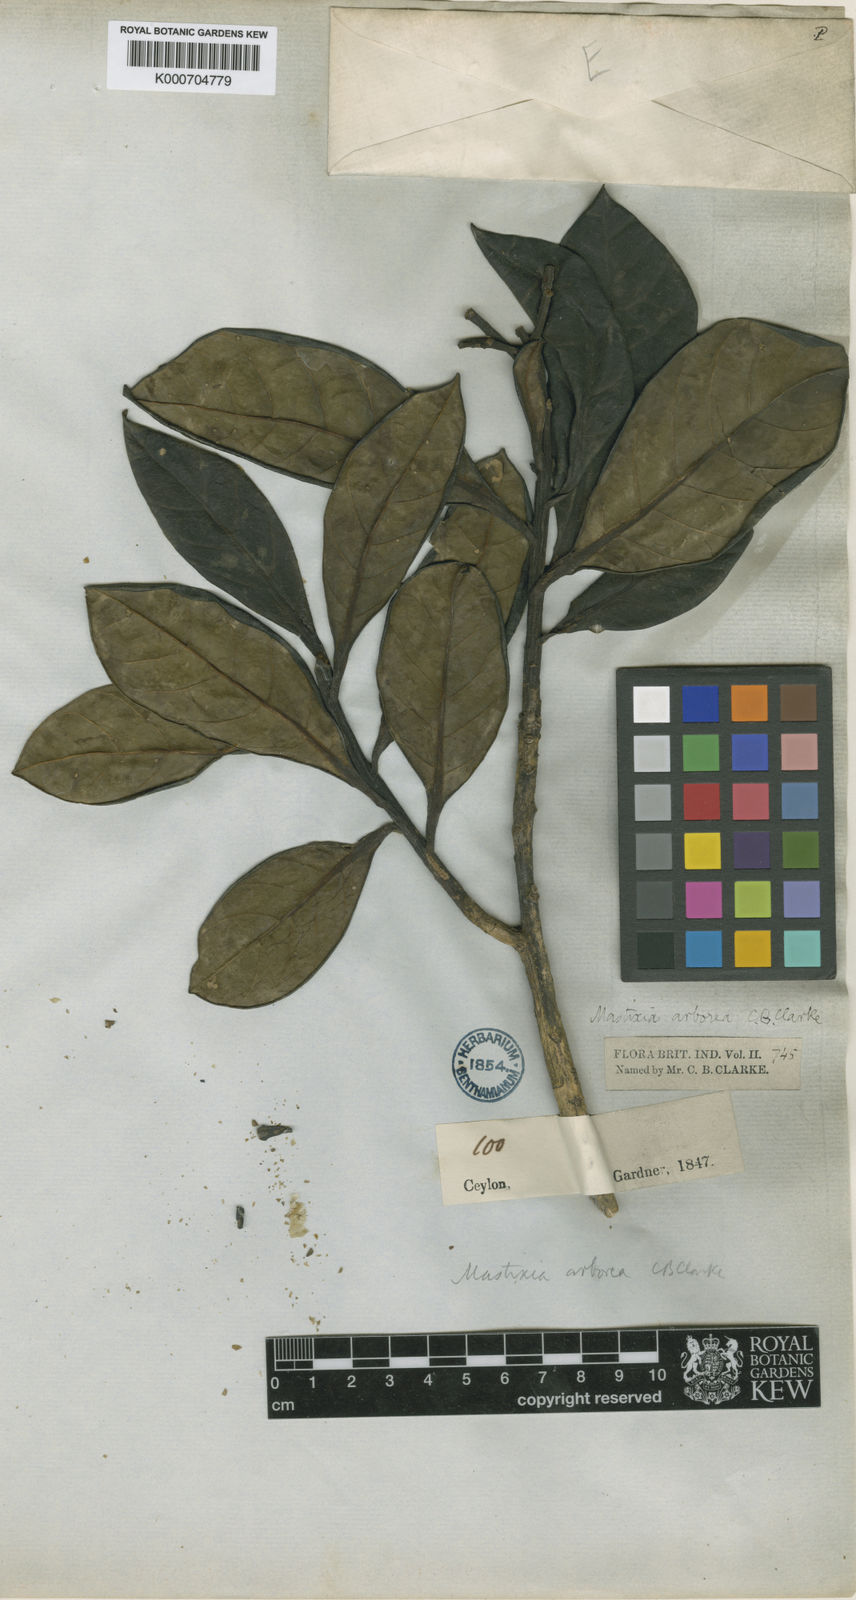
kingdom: Plantae
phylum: Tracheophyta
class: Magnoliopsida
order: Cornales
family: Nyssaceae
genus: Mastixia
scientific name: Mastixia arborea
